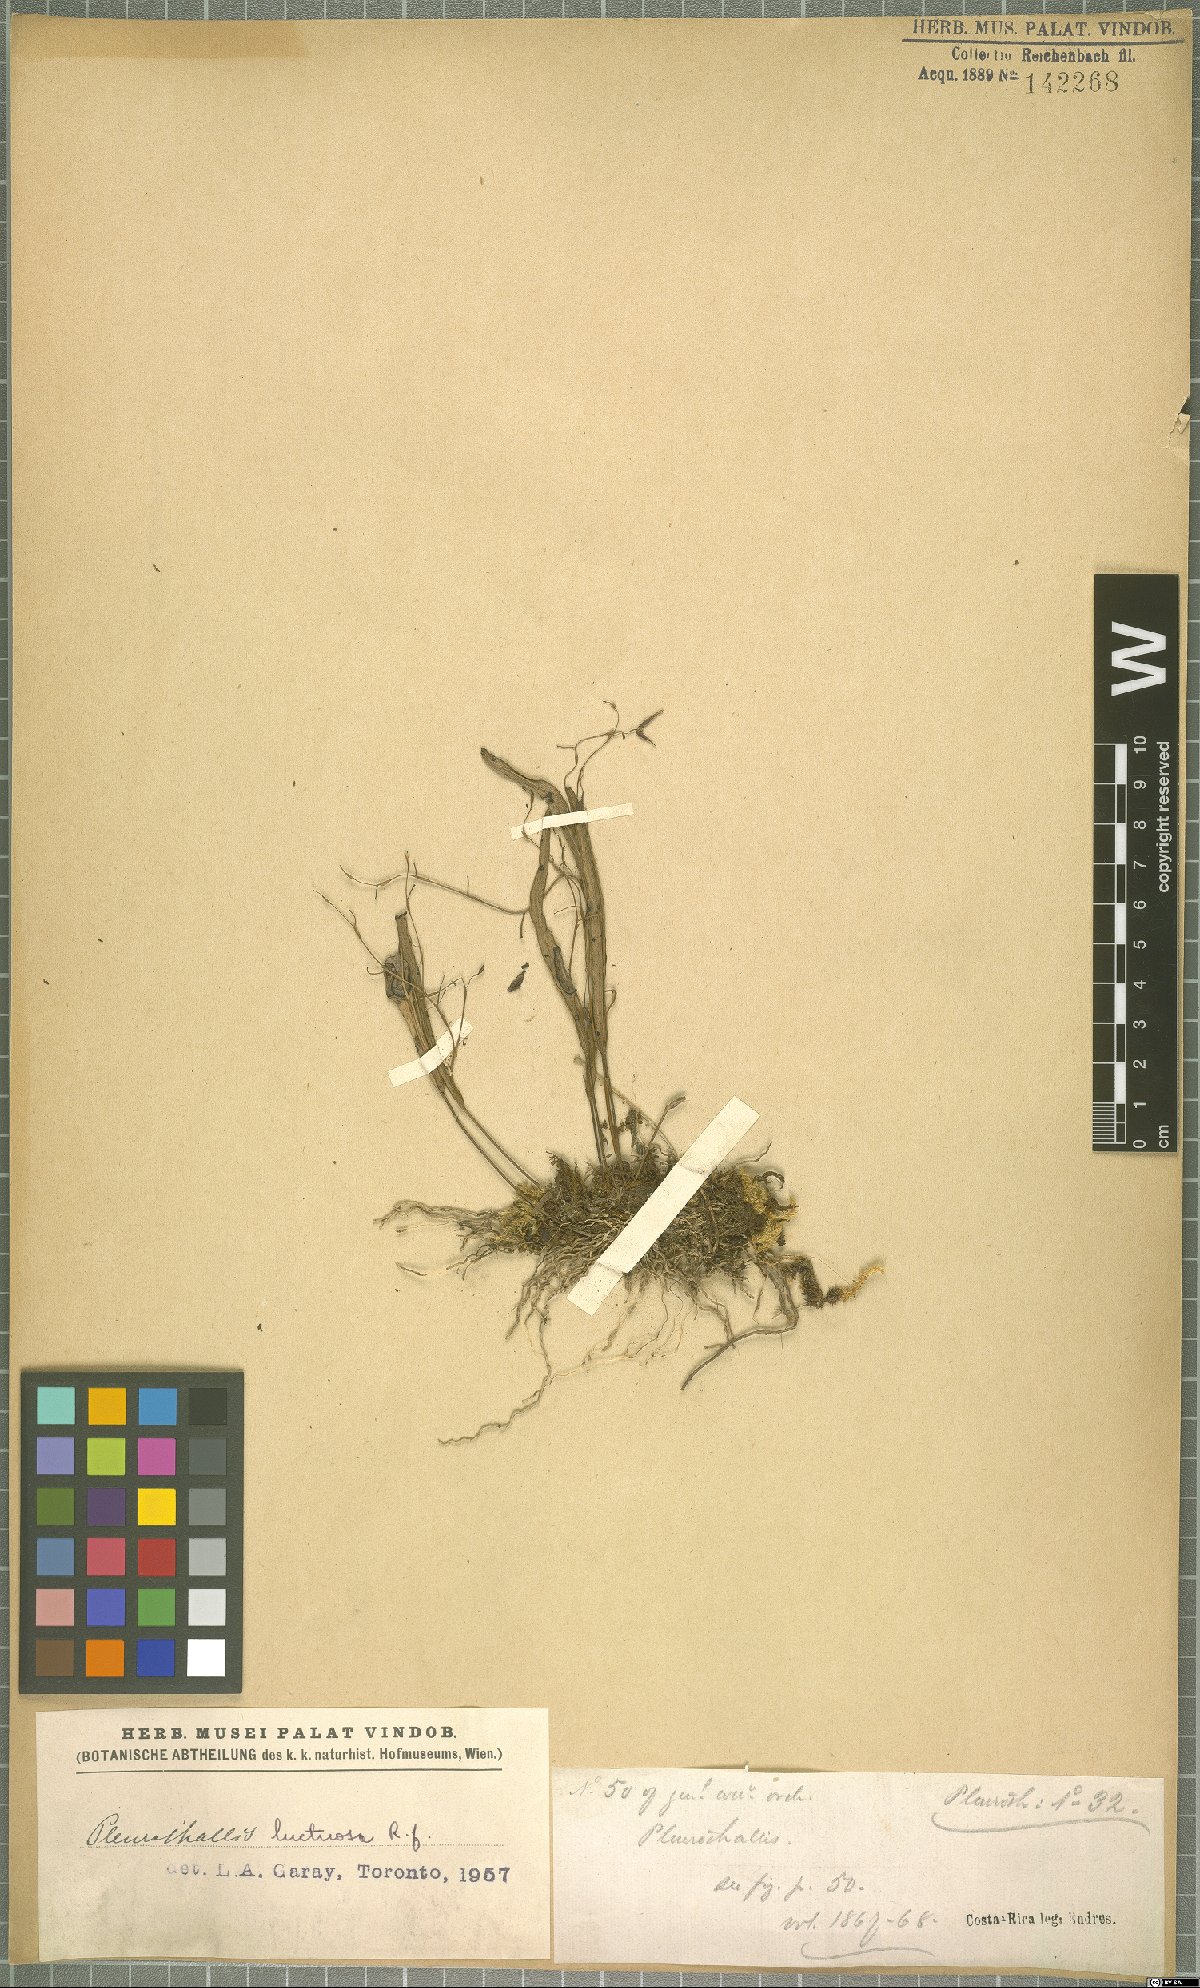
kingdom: Plantae
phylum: Tracheophyta
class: Liliopsida
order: Asparagales
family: Orchidaceae
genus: Pleurothallis
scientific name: Pleurothallis luctuosa
